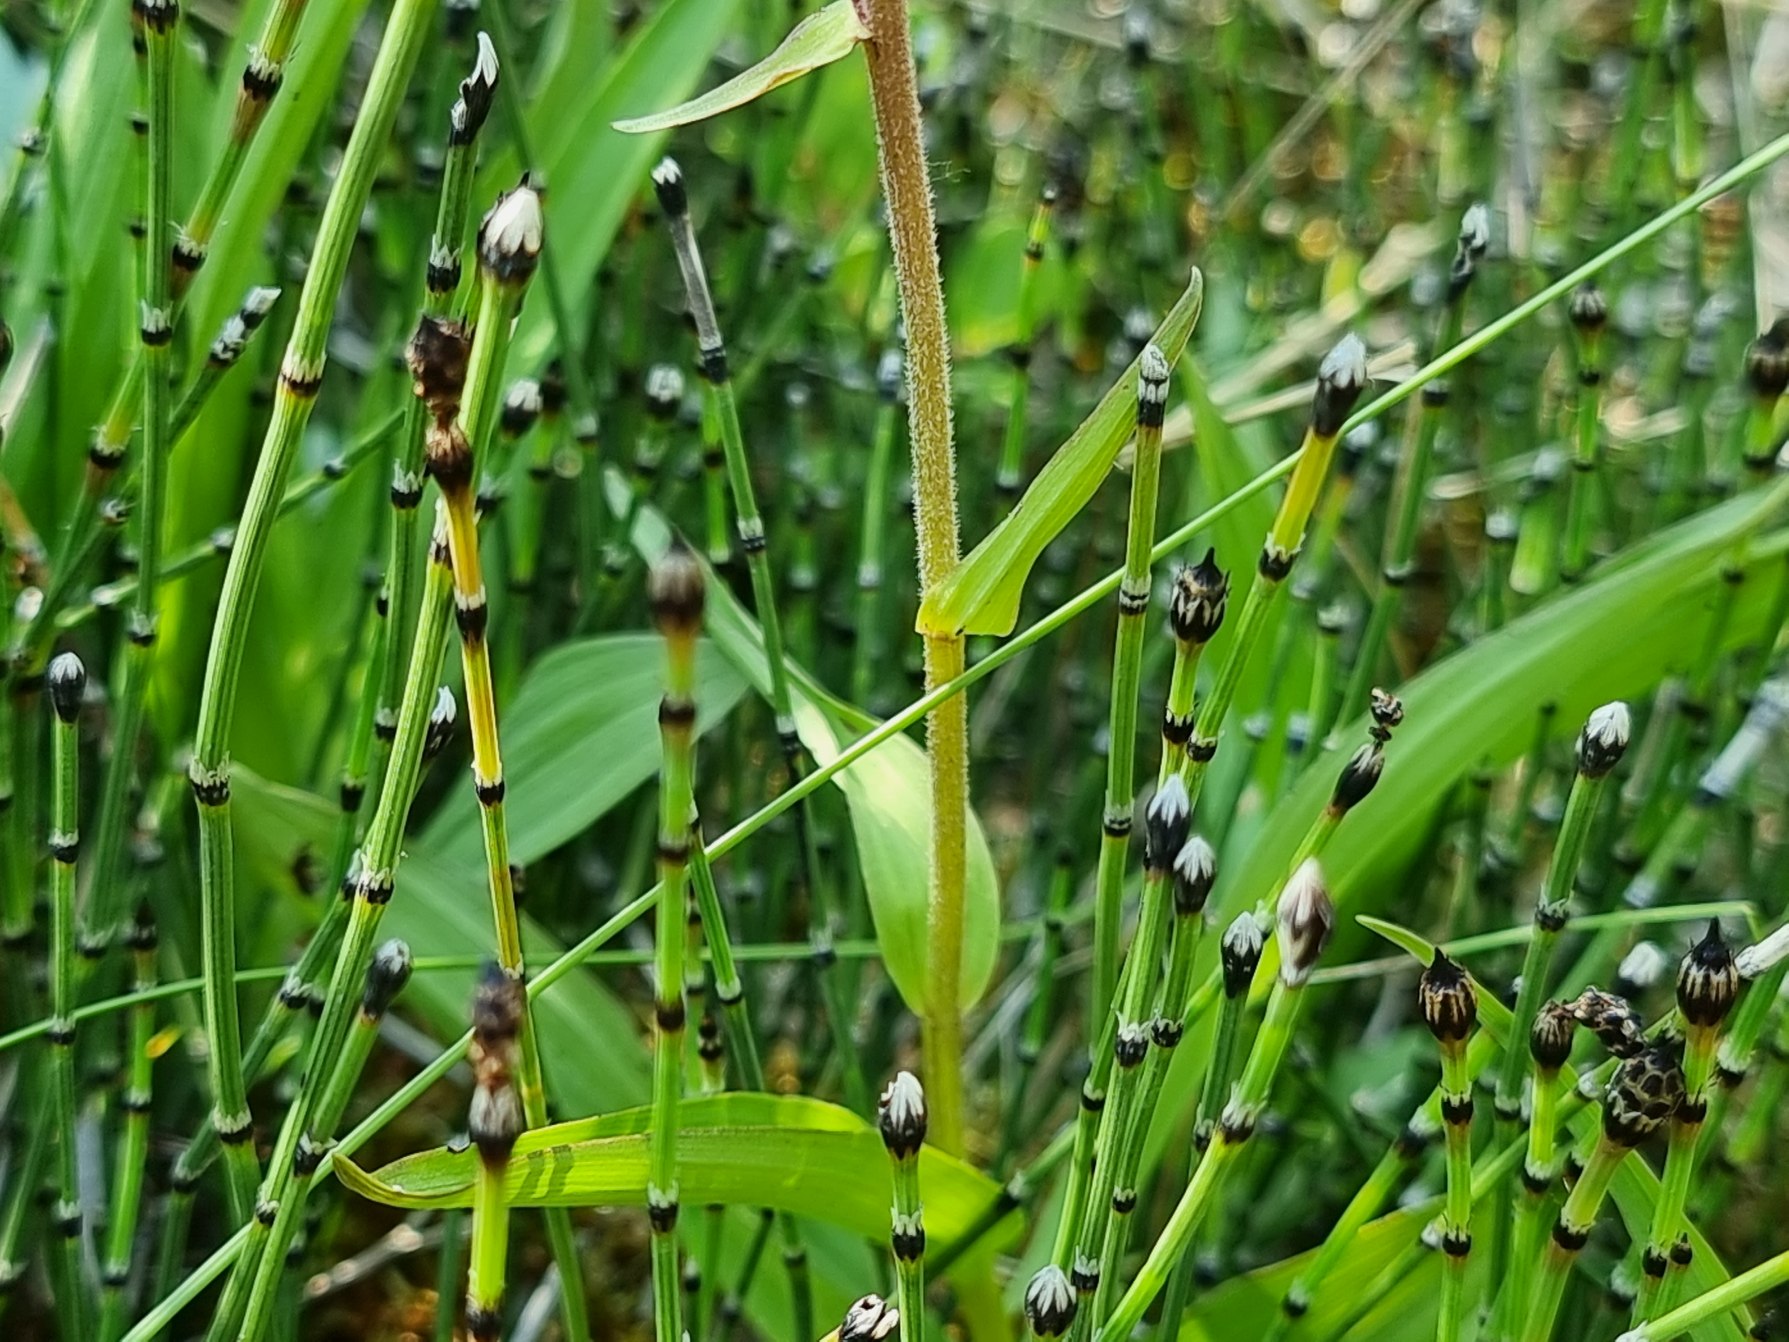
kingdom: Plantae
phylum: Tracheophyta
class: Polypodiopsida
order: Equisetales
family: Equisetaceae
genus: Equisetum
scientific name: Equisetum variegatum
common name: Liden padderok
